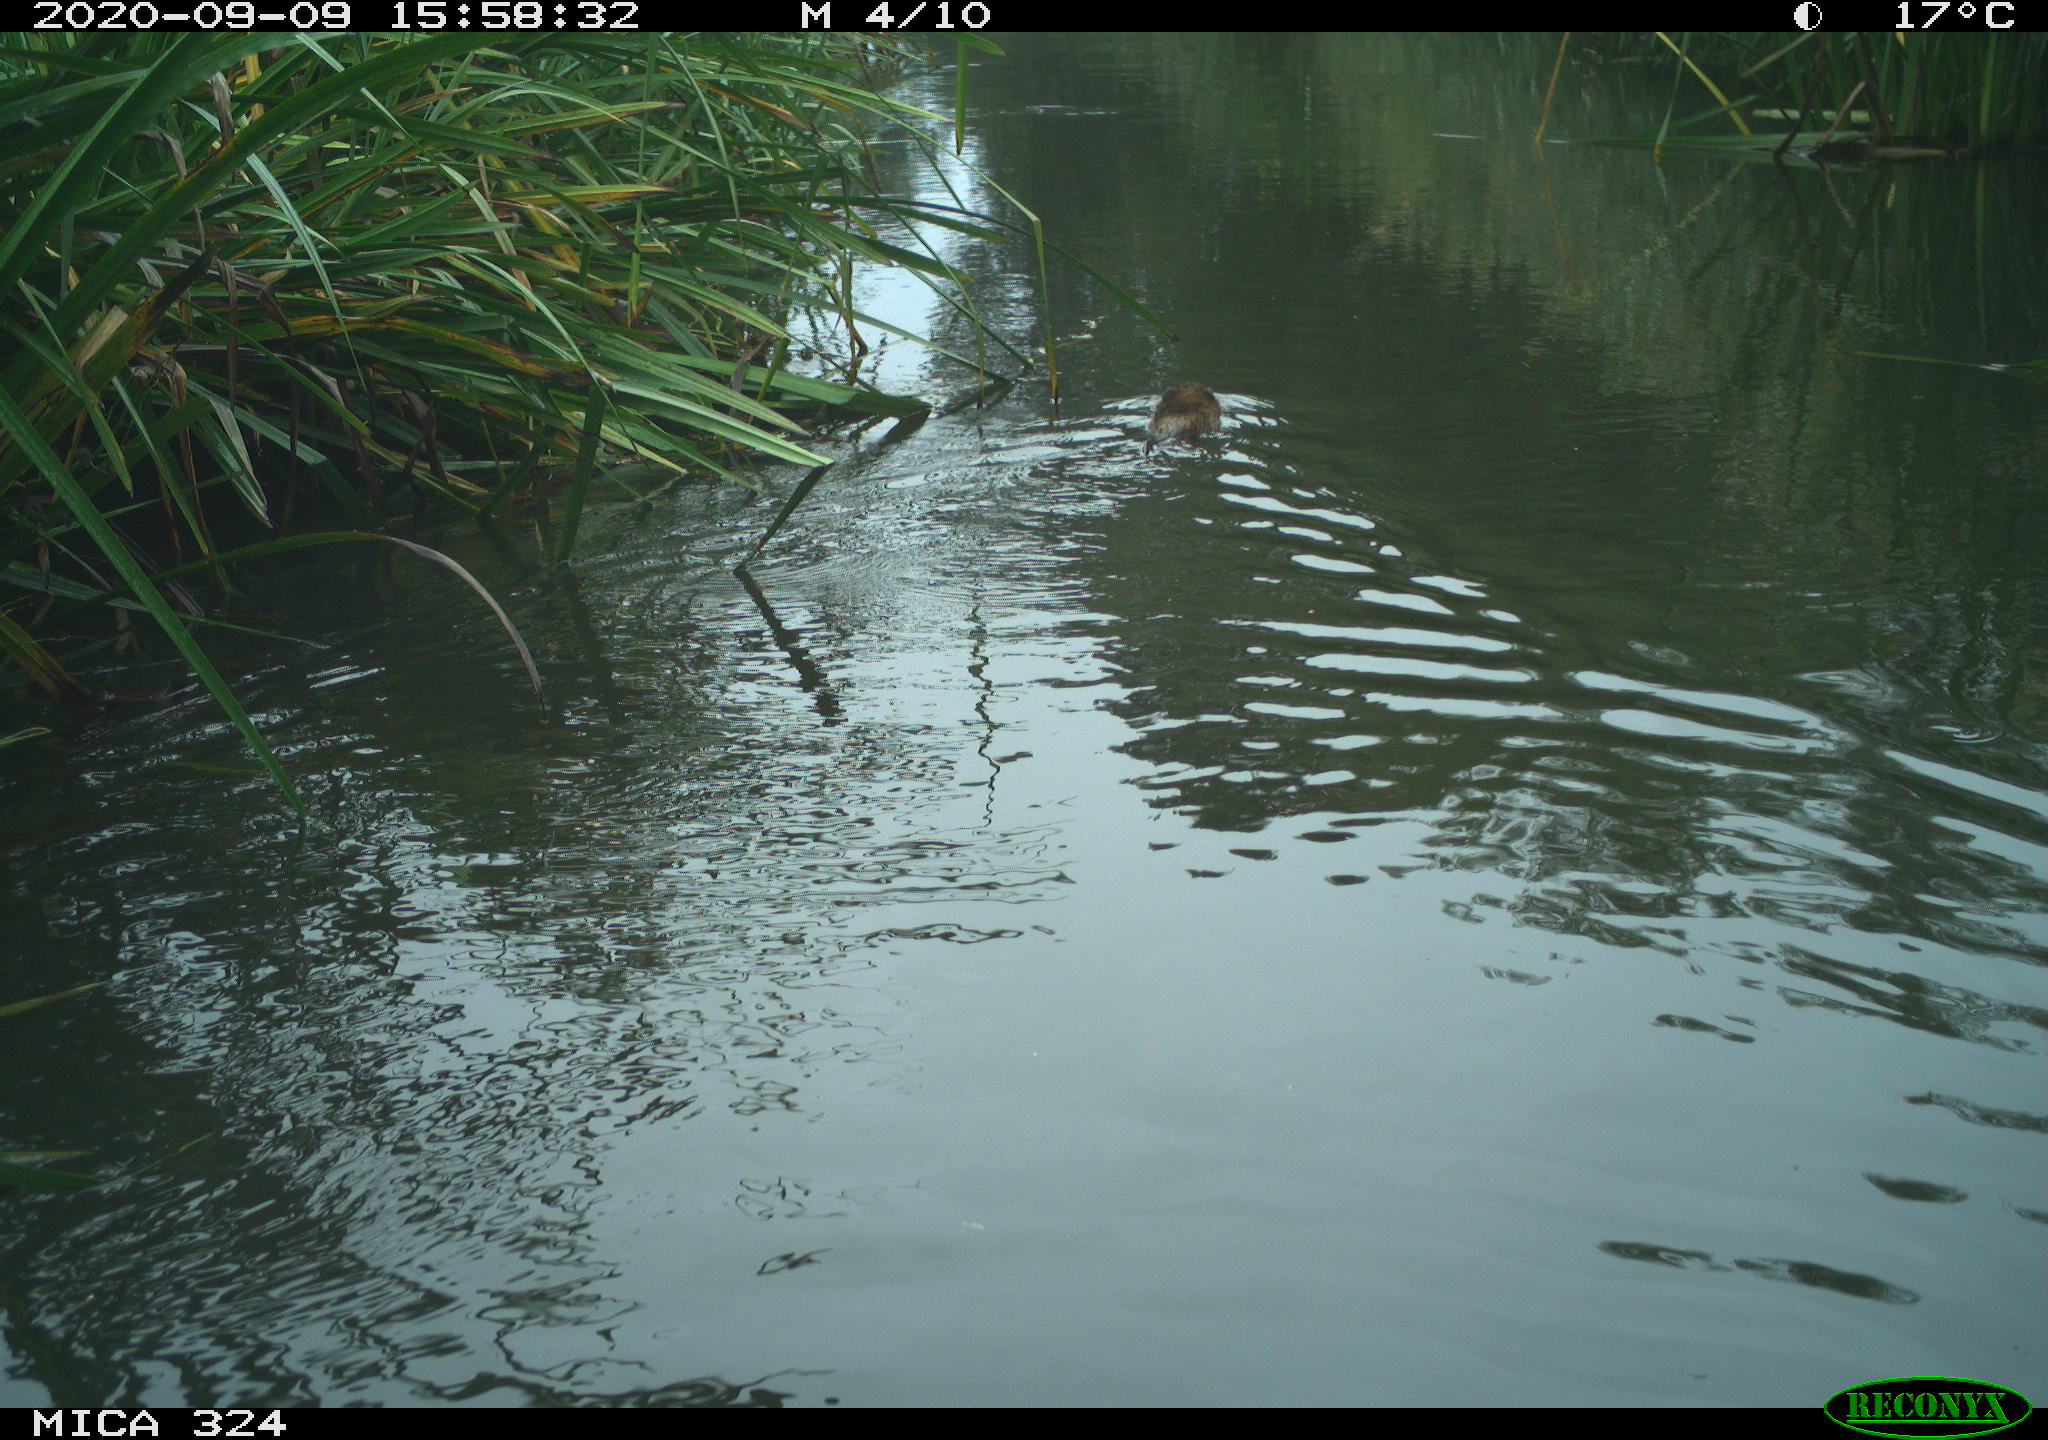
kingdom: Animalia
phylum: Chordata
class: Mammalia
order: Rodentia
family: Cricetidae
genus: Ondatra
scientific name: Ondatra zibethicus
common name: Muskrat
